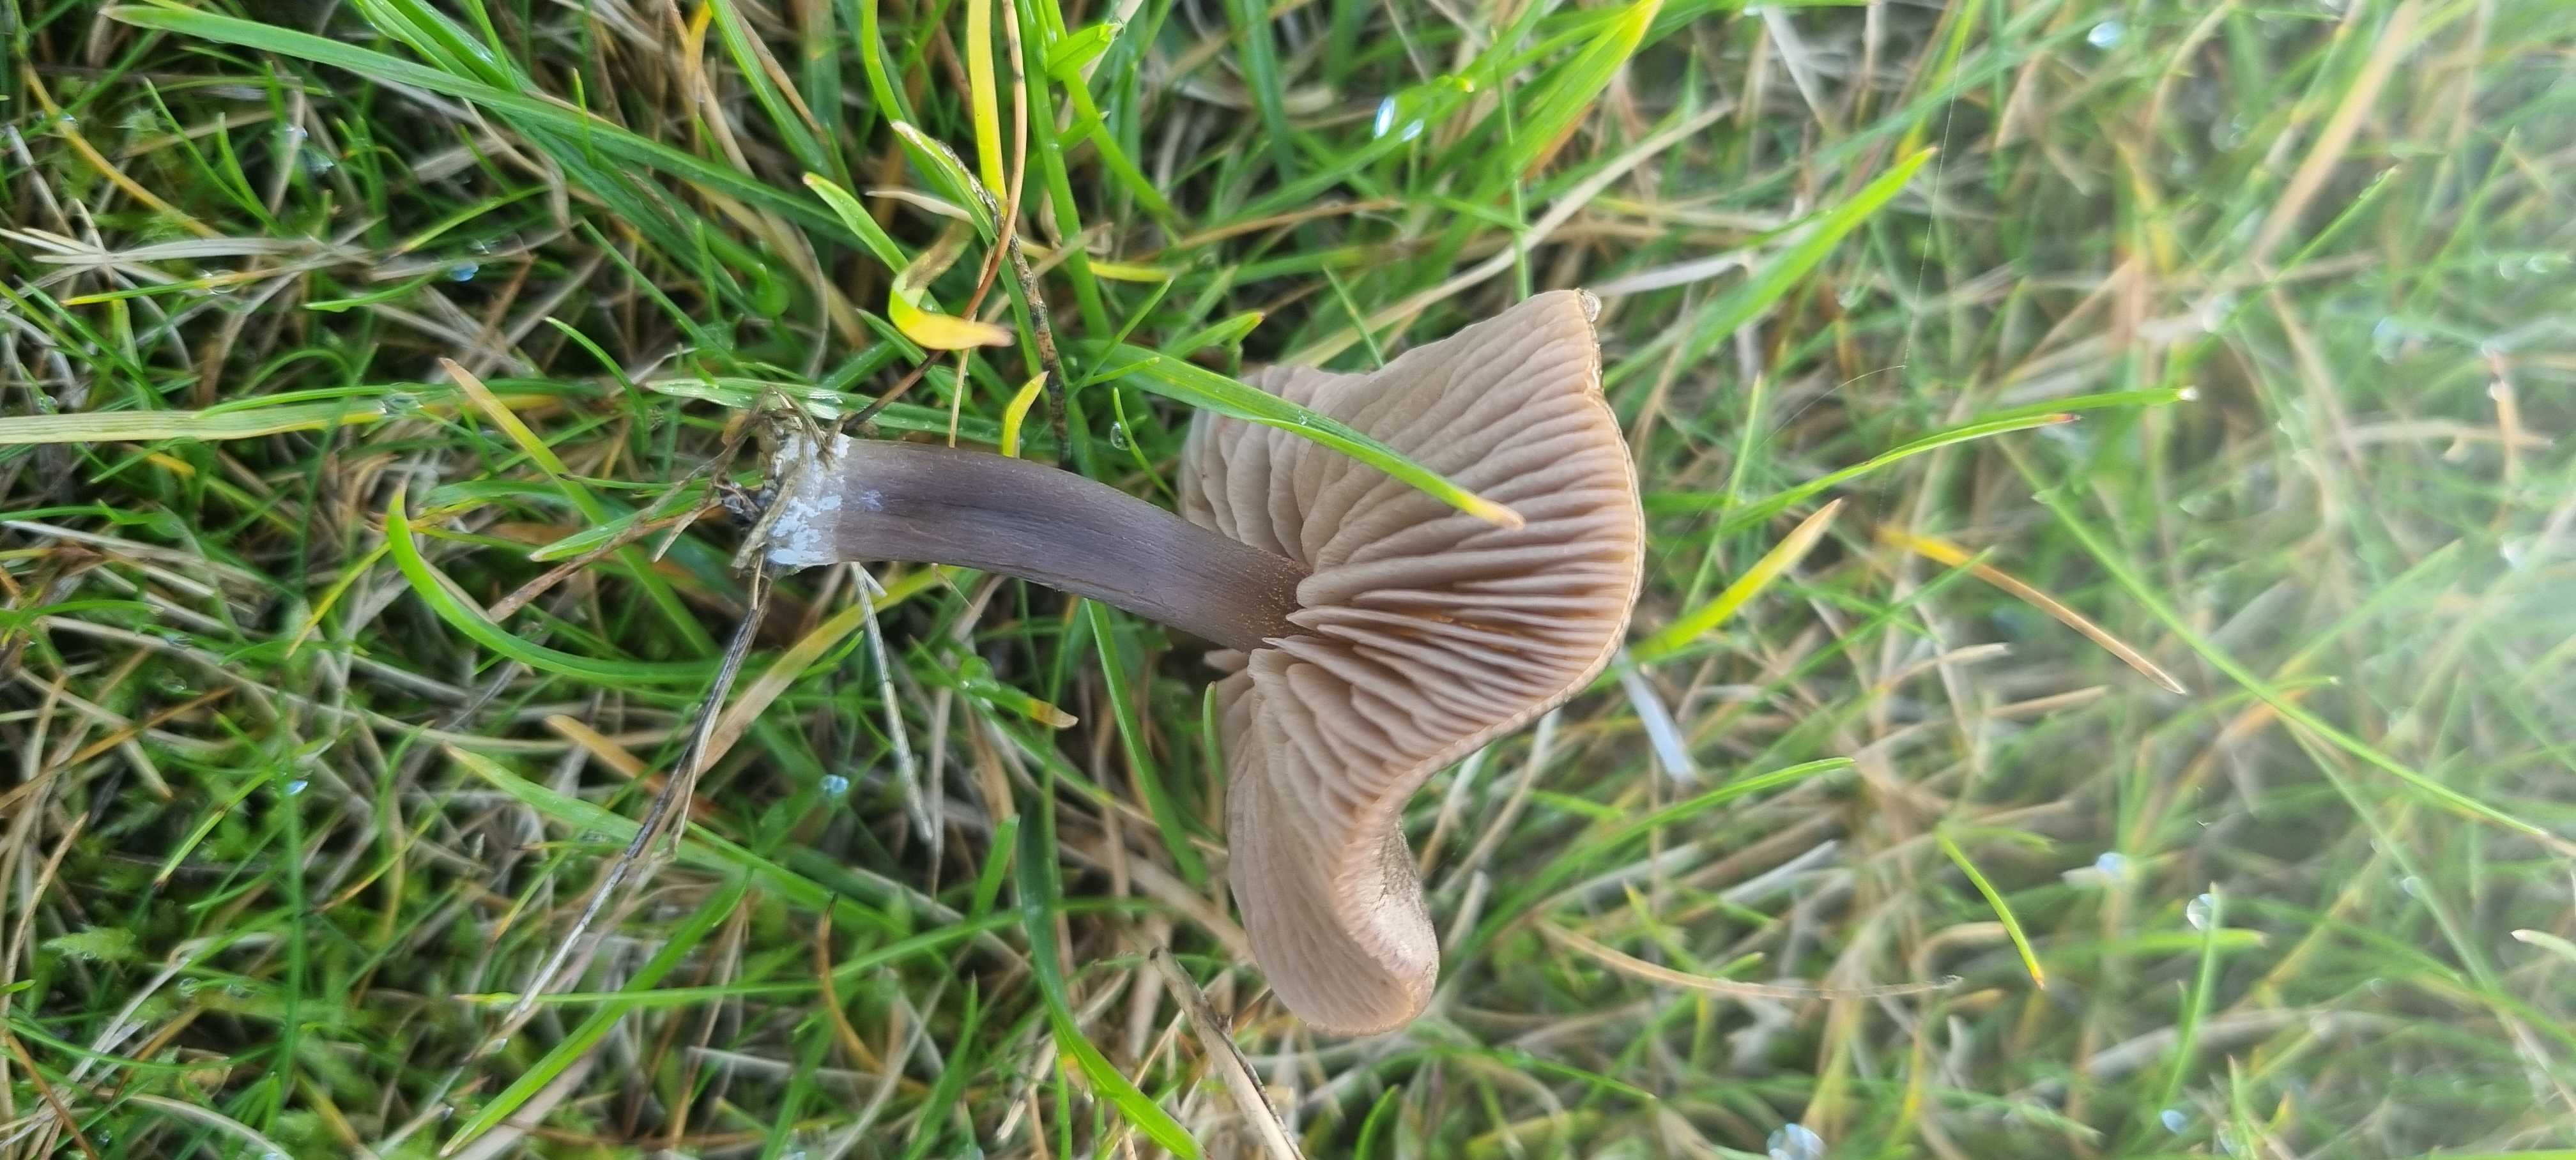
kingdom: Fungi
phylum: Basidiomycota
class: Agaricomycetes
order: Agaricales
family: Entolomataceae
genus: Entoloma
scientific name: Entoloma
